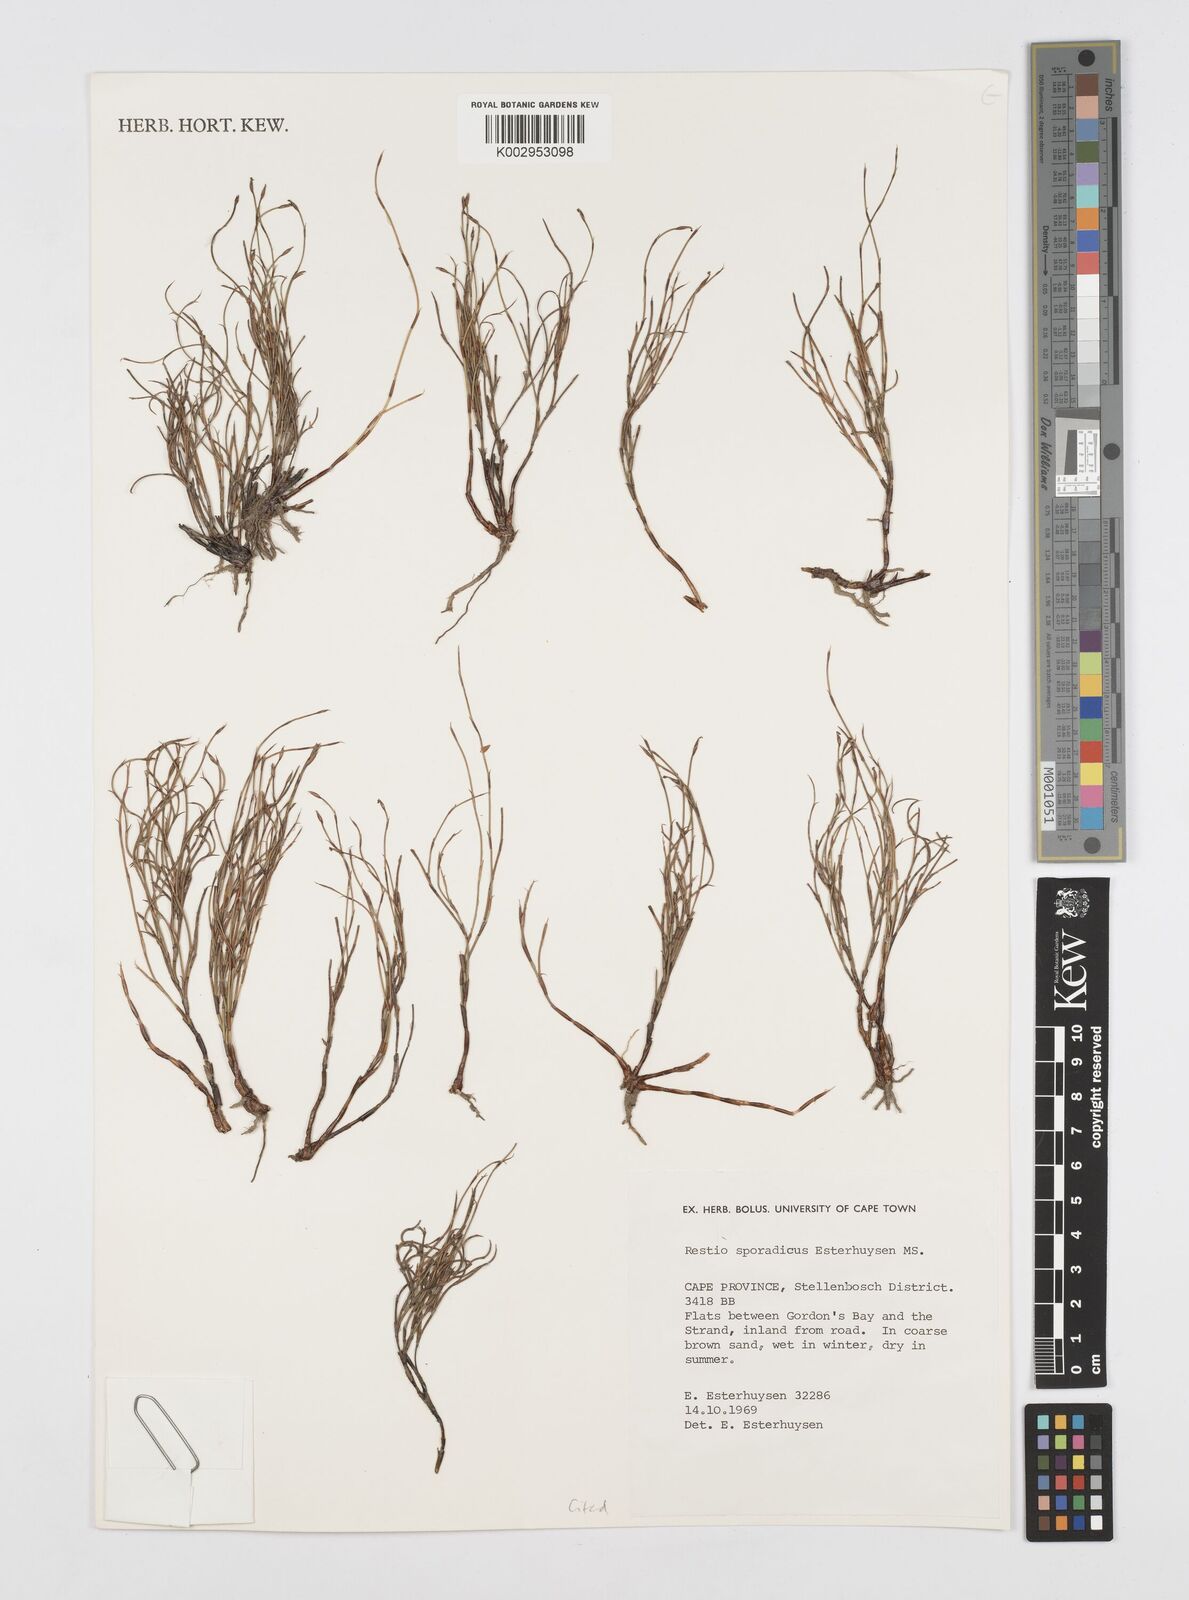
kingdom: Plantae
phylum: Tracheophyta
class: Liliopsida
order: Poales
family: Restionaceae
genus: Restio
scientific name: Restio sporadicus
